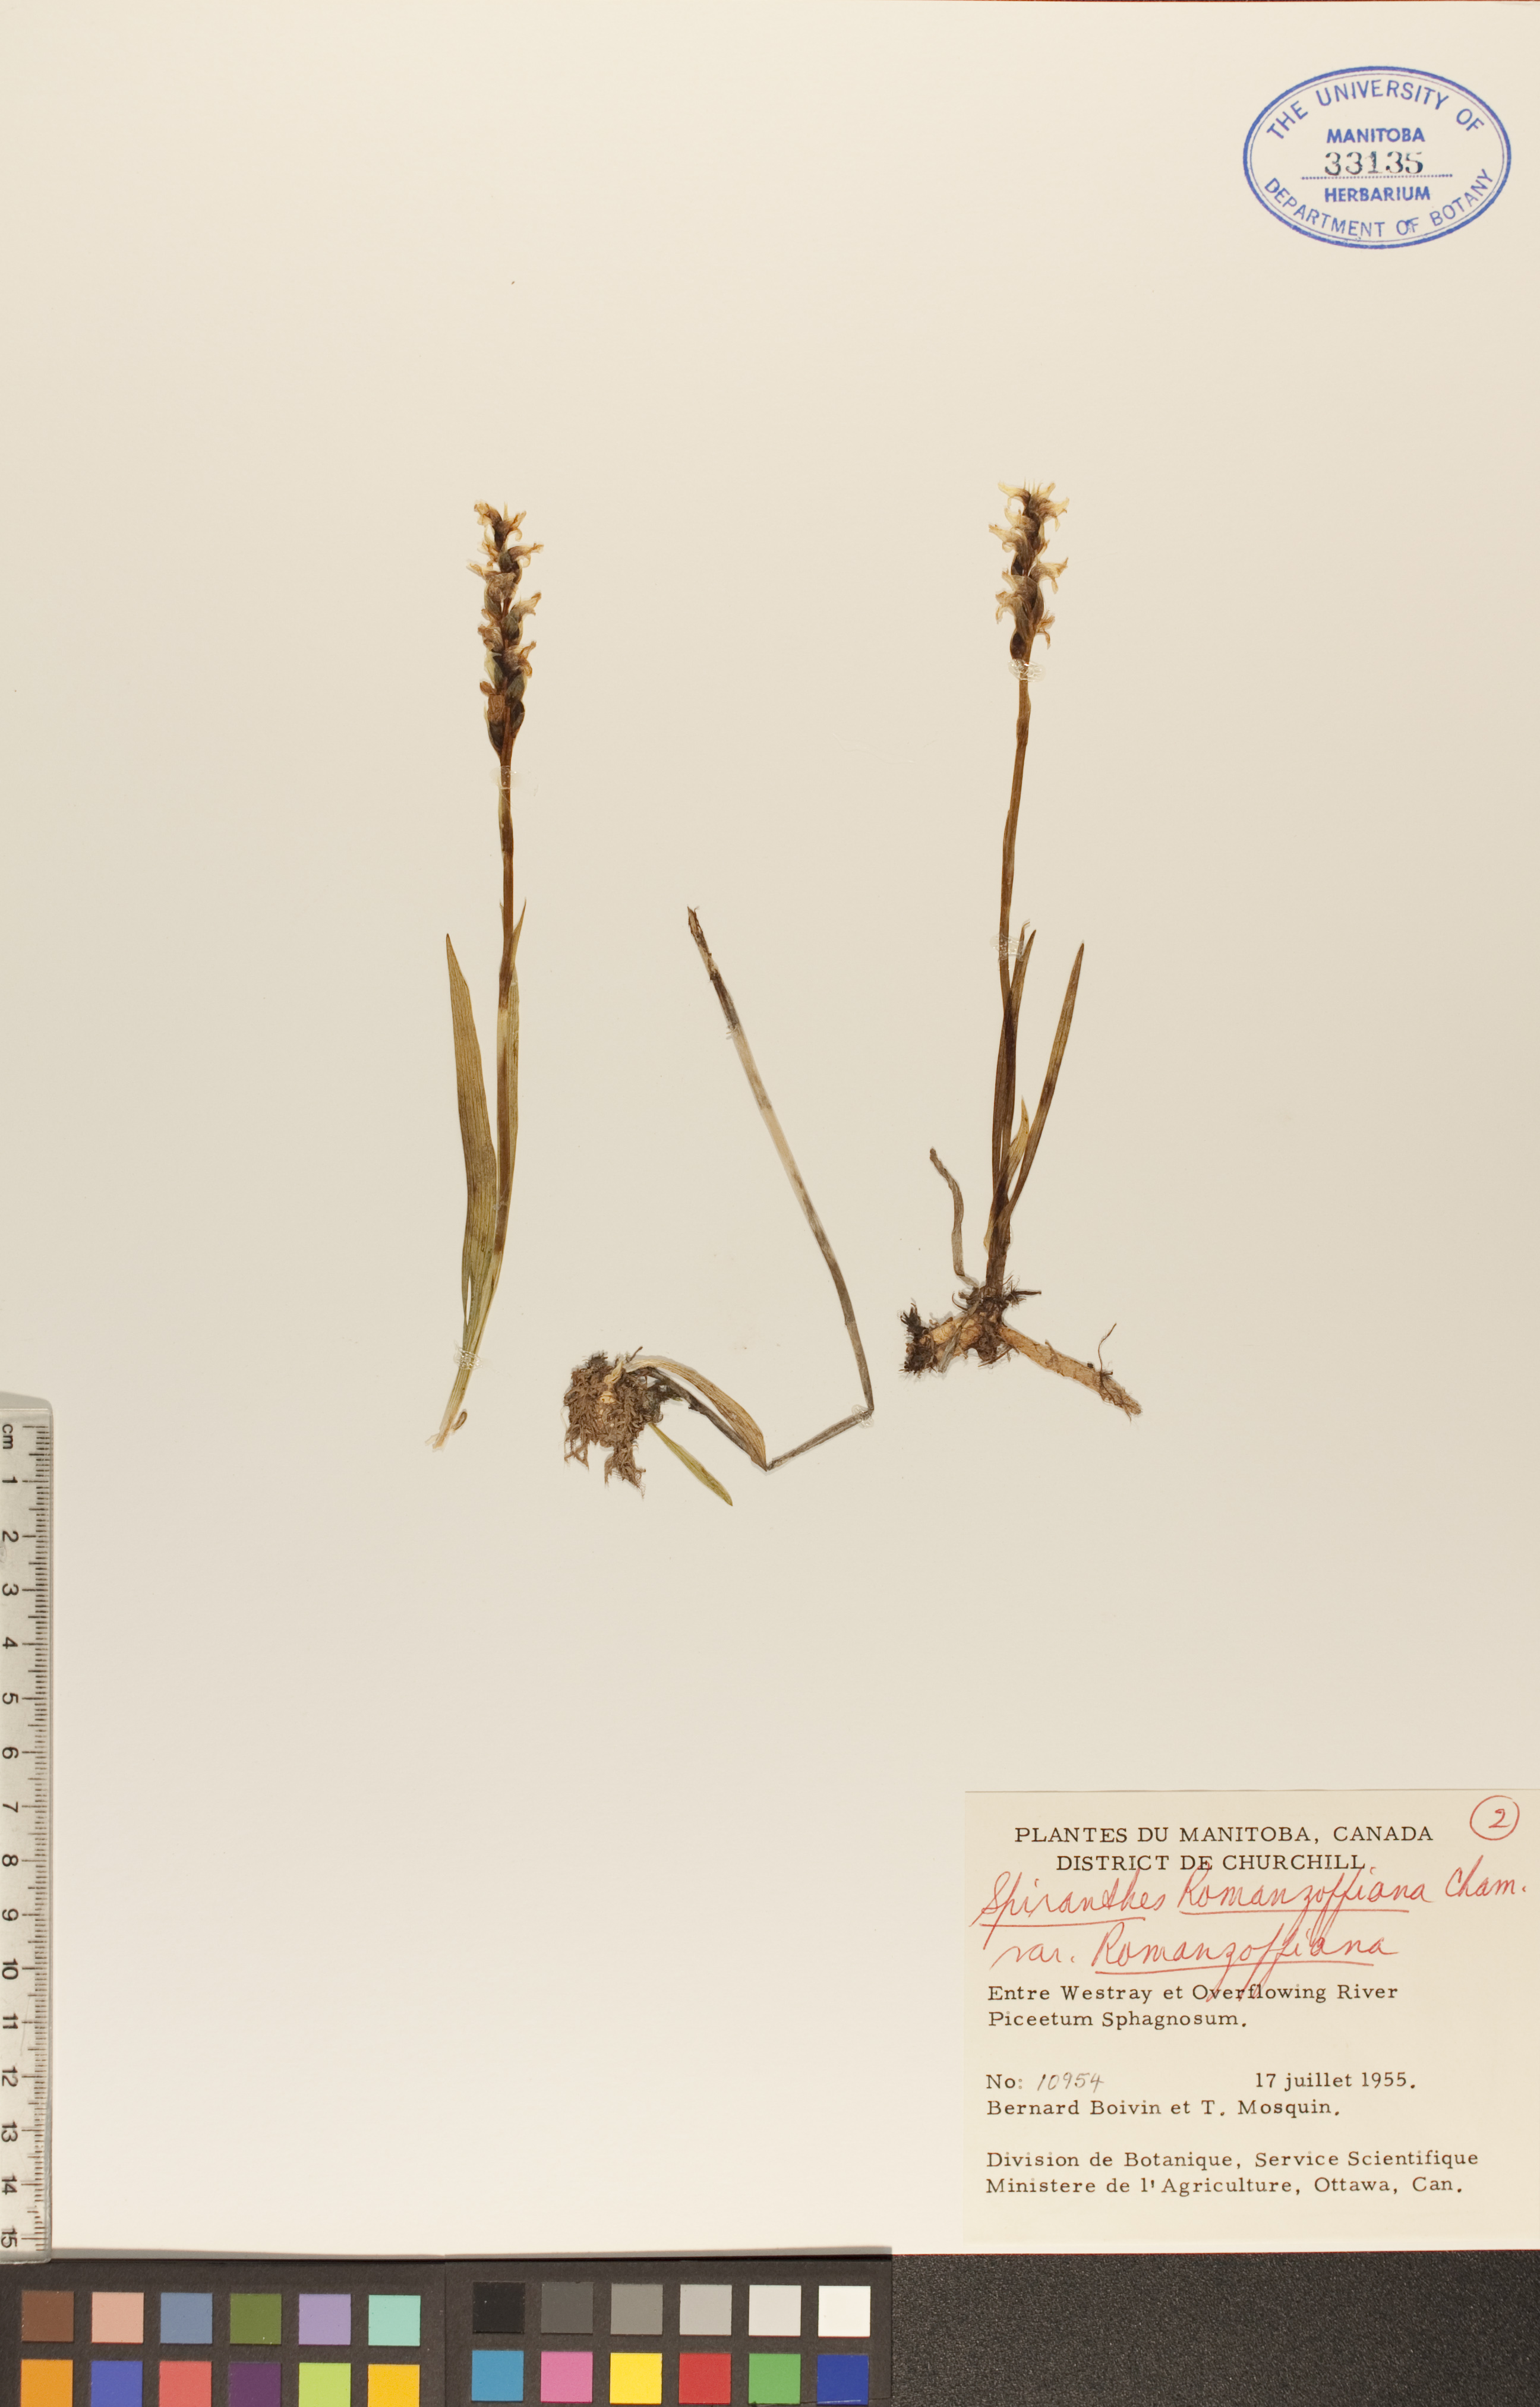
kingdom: Plantae
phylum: Tracheophyta
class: Liliopsida
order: Asparagales
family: Orchidaceae
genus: Spiranthes
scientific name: Spiranthes romanzoffiana
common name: Irish lady's-tresses
